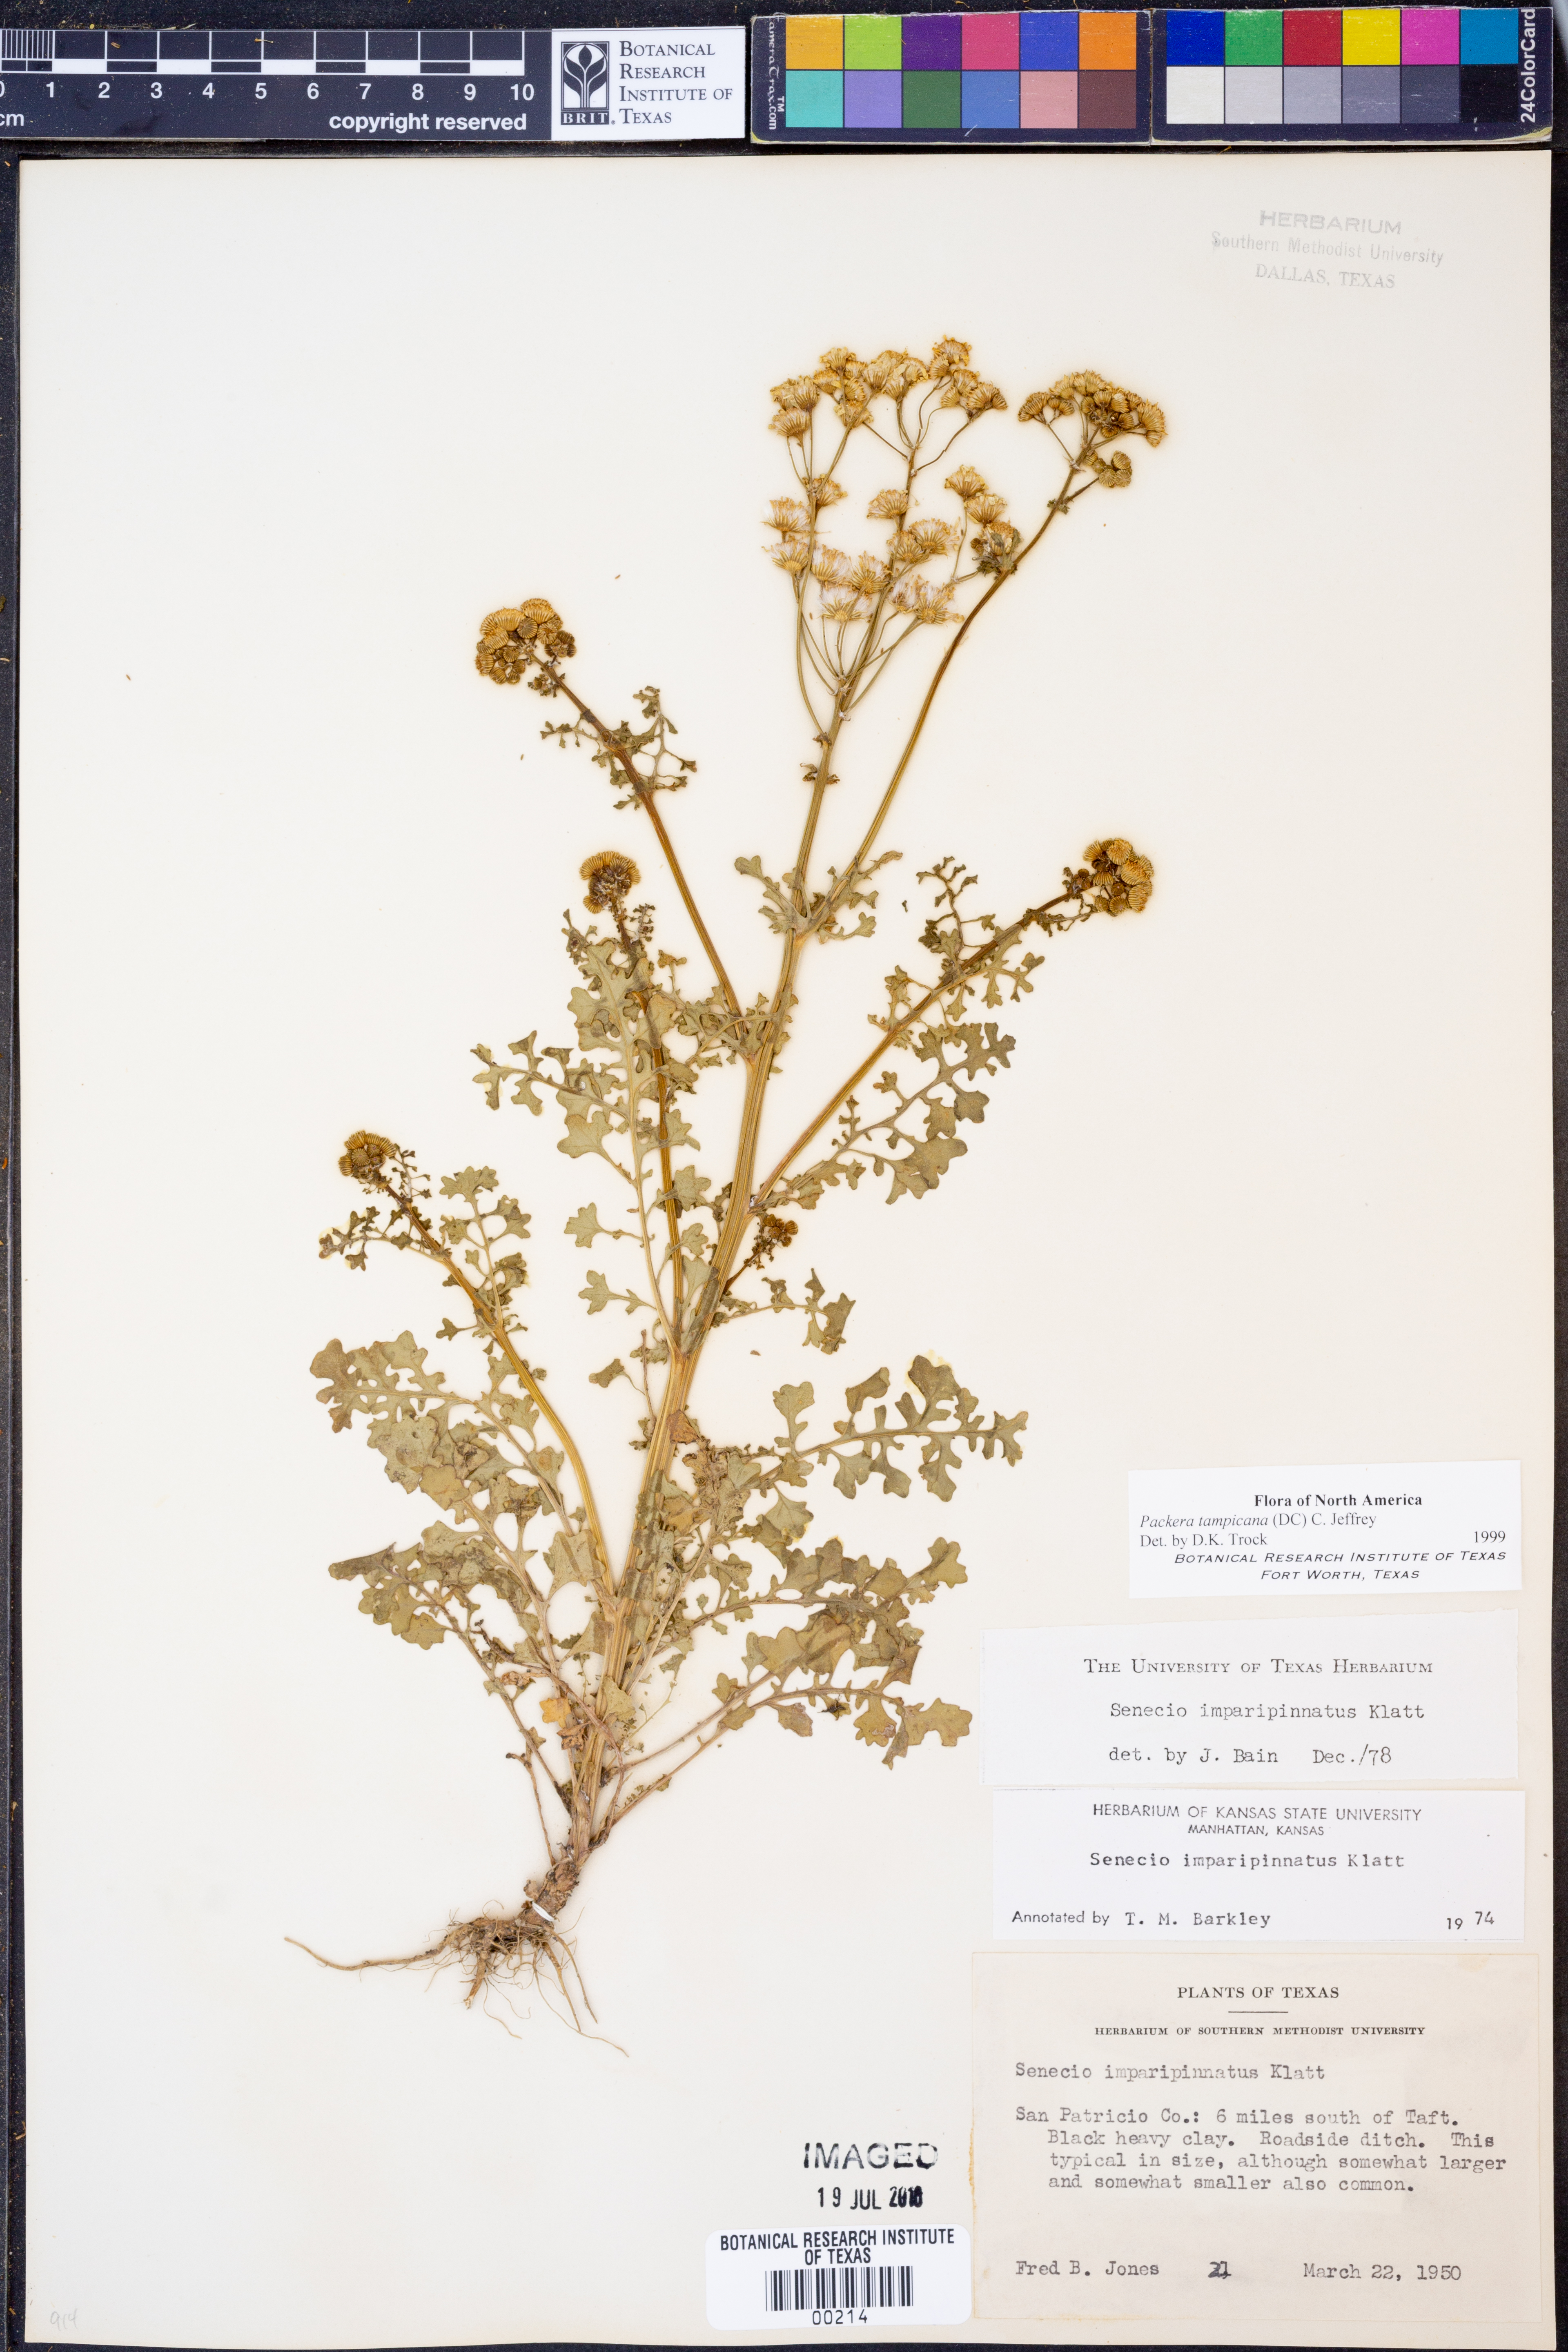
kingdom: Plantae
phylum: Tracheophyta
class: Magnoliopsida
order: Asterales
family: Asteraceae
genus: Packera
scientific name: Packera tampicana
